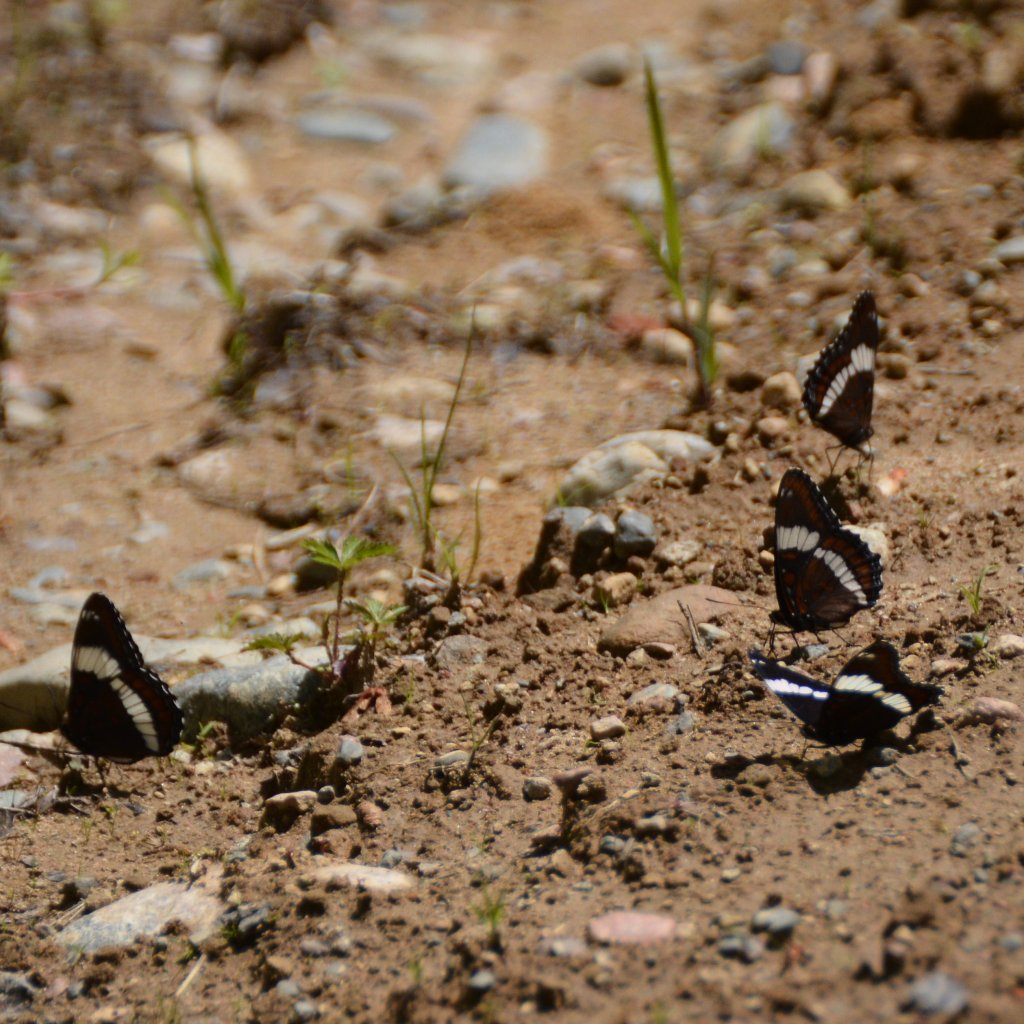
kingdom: Animalia
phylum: Arthropoda
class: Insecta
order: Lepidoptera
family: Nymphalidae
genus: Limenitis
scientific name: Limenitis arthemis
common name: Red-spotted Admiral
